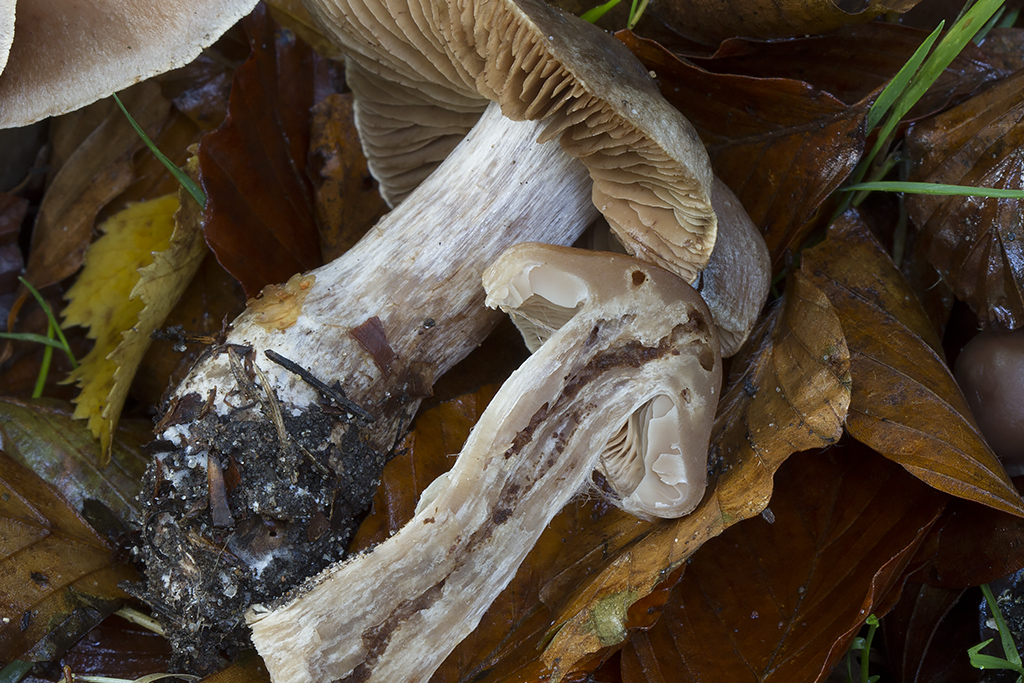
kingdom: Fungi
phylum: Basidiomycota
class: Agaricomycetes
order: Agaricales
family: Cortinariaceae
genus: Cortinarius
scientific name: Cortinarius heatherae
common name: mørkprikket slørhat
